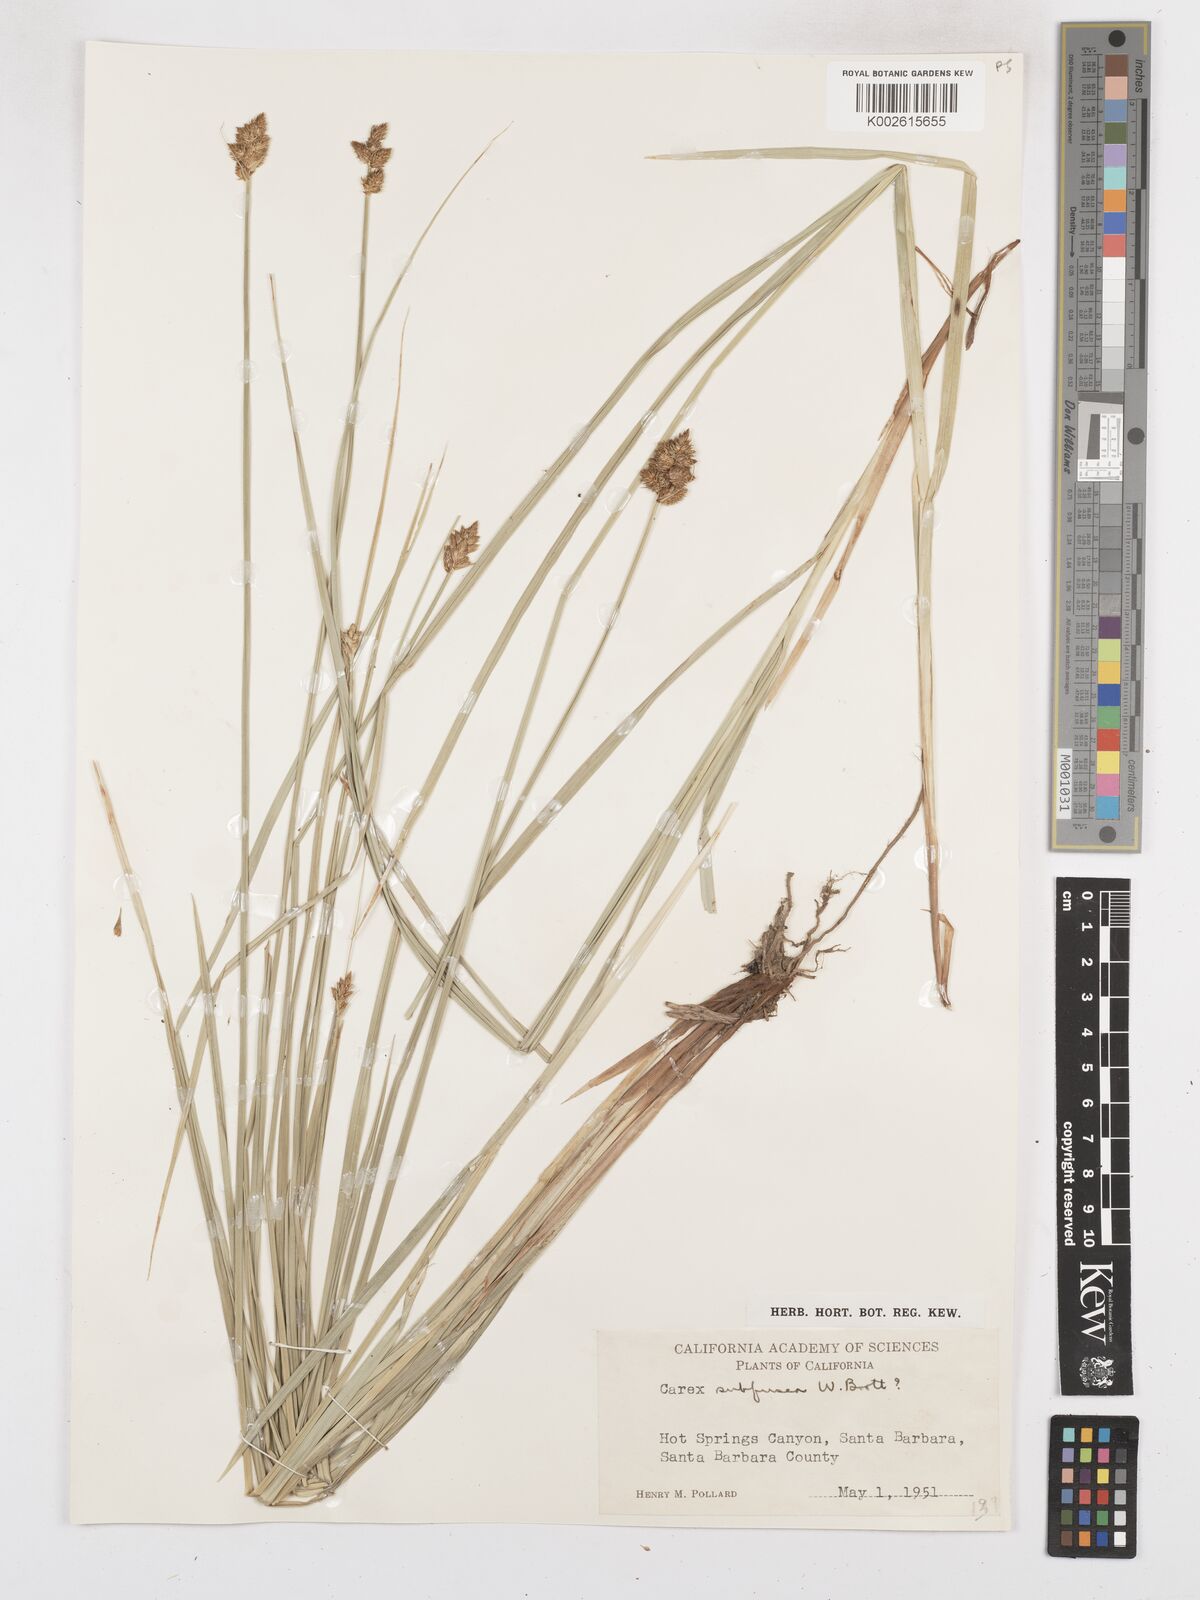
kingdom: Plantae
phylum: Tracheophyta
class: Liliopsida
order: Poales
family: Cyperaceae
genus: Carex
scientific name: Carex subfusca
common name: Brown sedge
